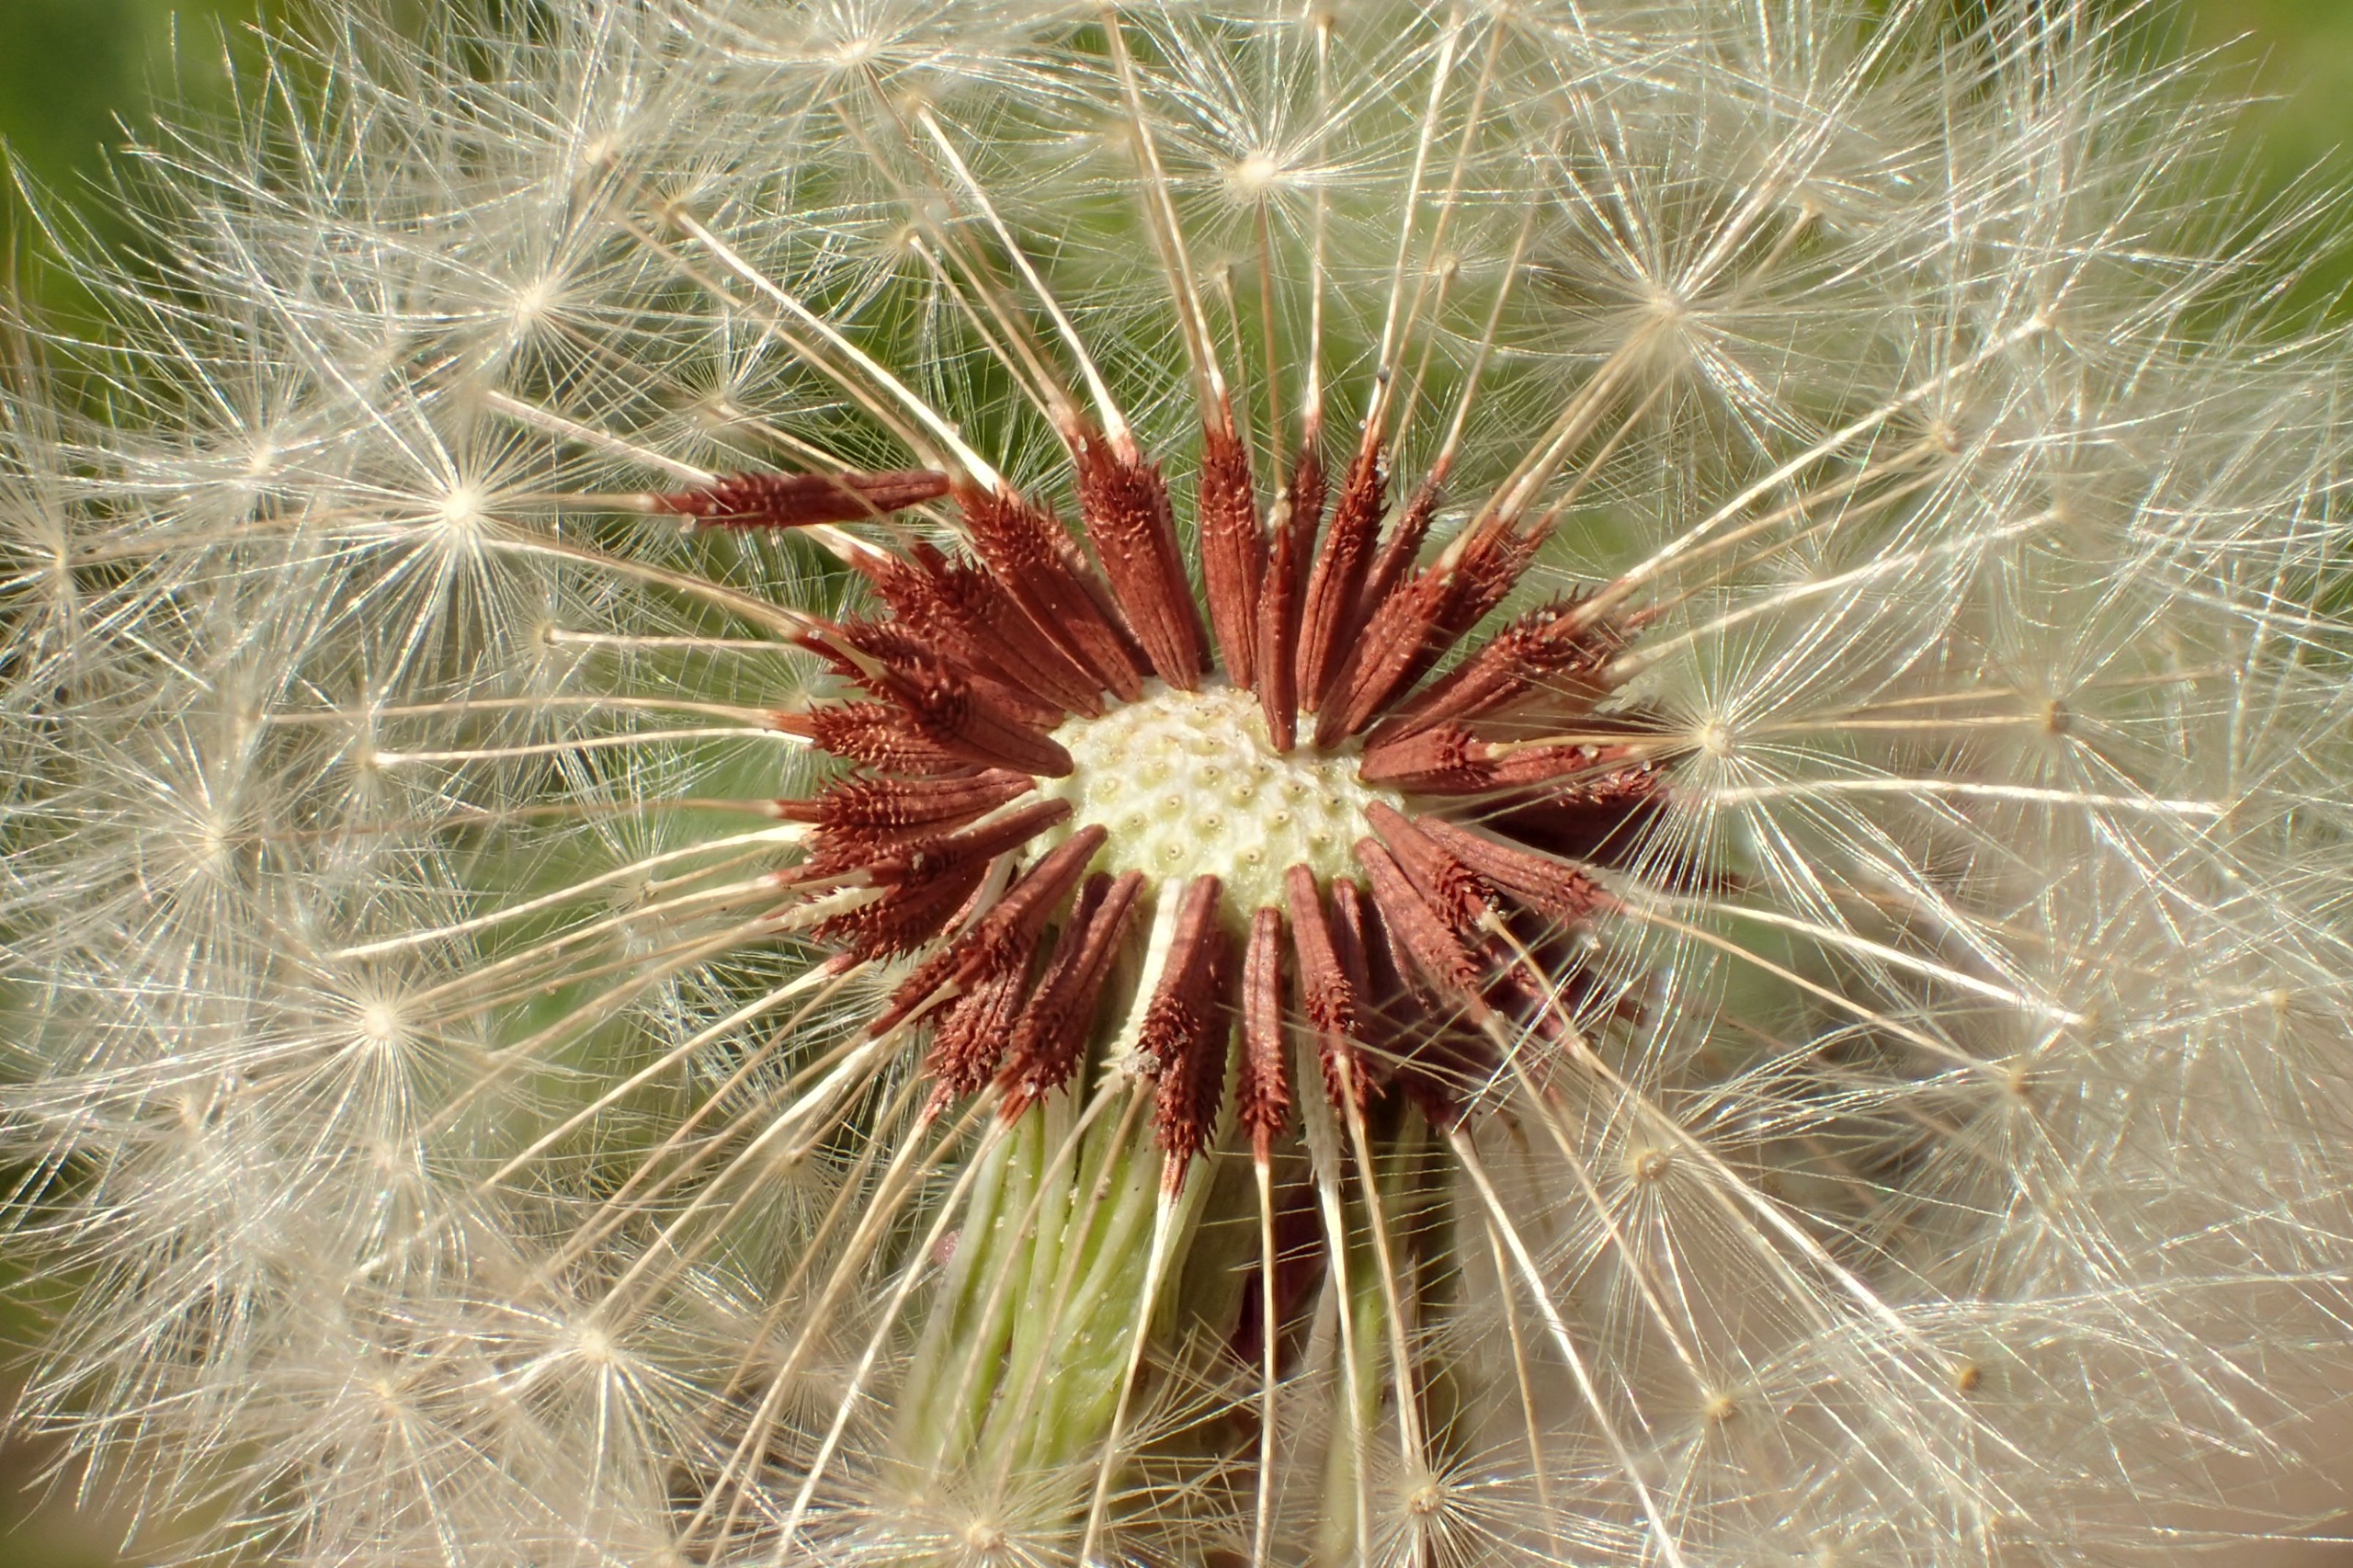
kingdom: Plantae
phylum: Tracheophyta
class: Magnoliopsida
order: Asterales
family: Asteraceae
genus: Taraxacum
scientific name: Taraxacum lacistophyllum
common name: Bakke-sandmælkebøtte
